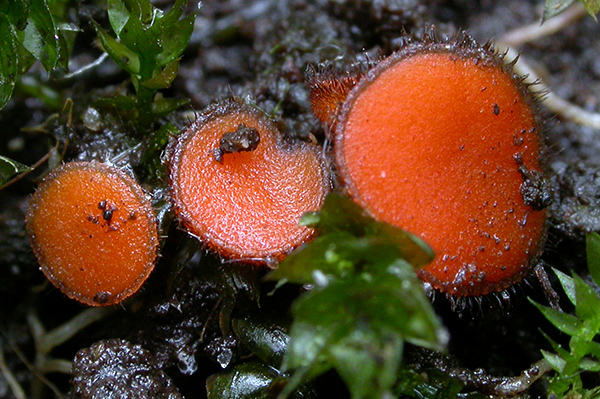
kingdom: Fungi
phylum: Ascomycota
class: Pezizomycetes
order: Pezizales
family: Pyronemataceae
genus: Scutellinia
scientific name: Scutellinia umbrorum
